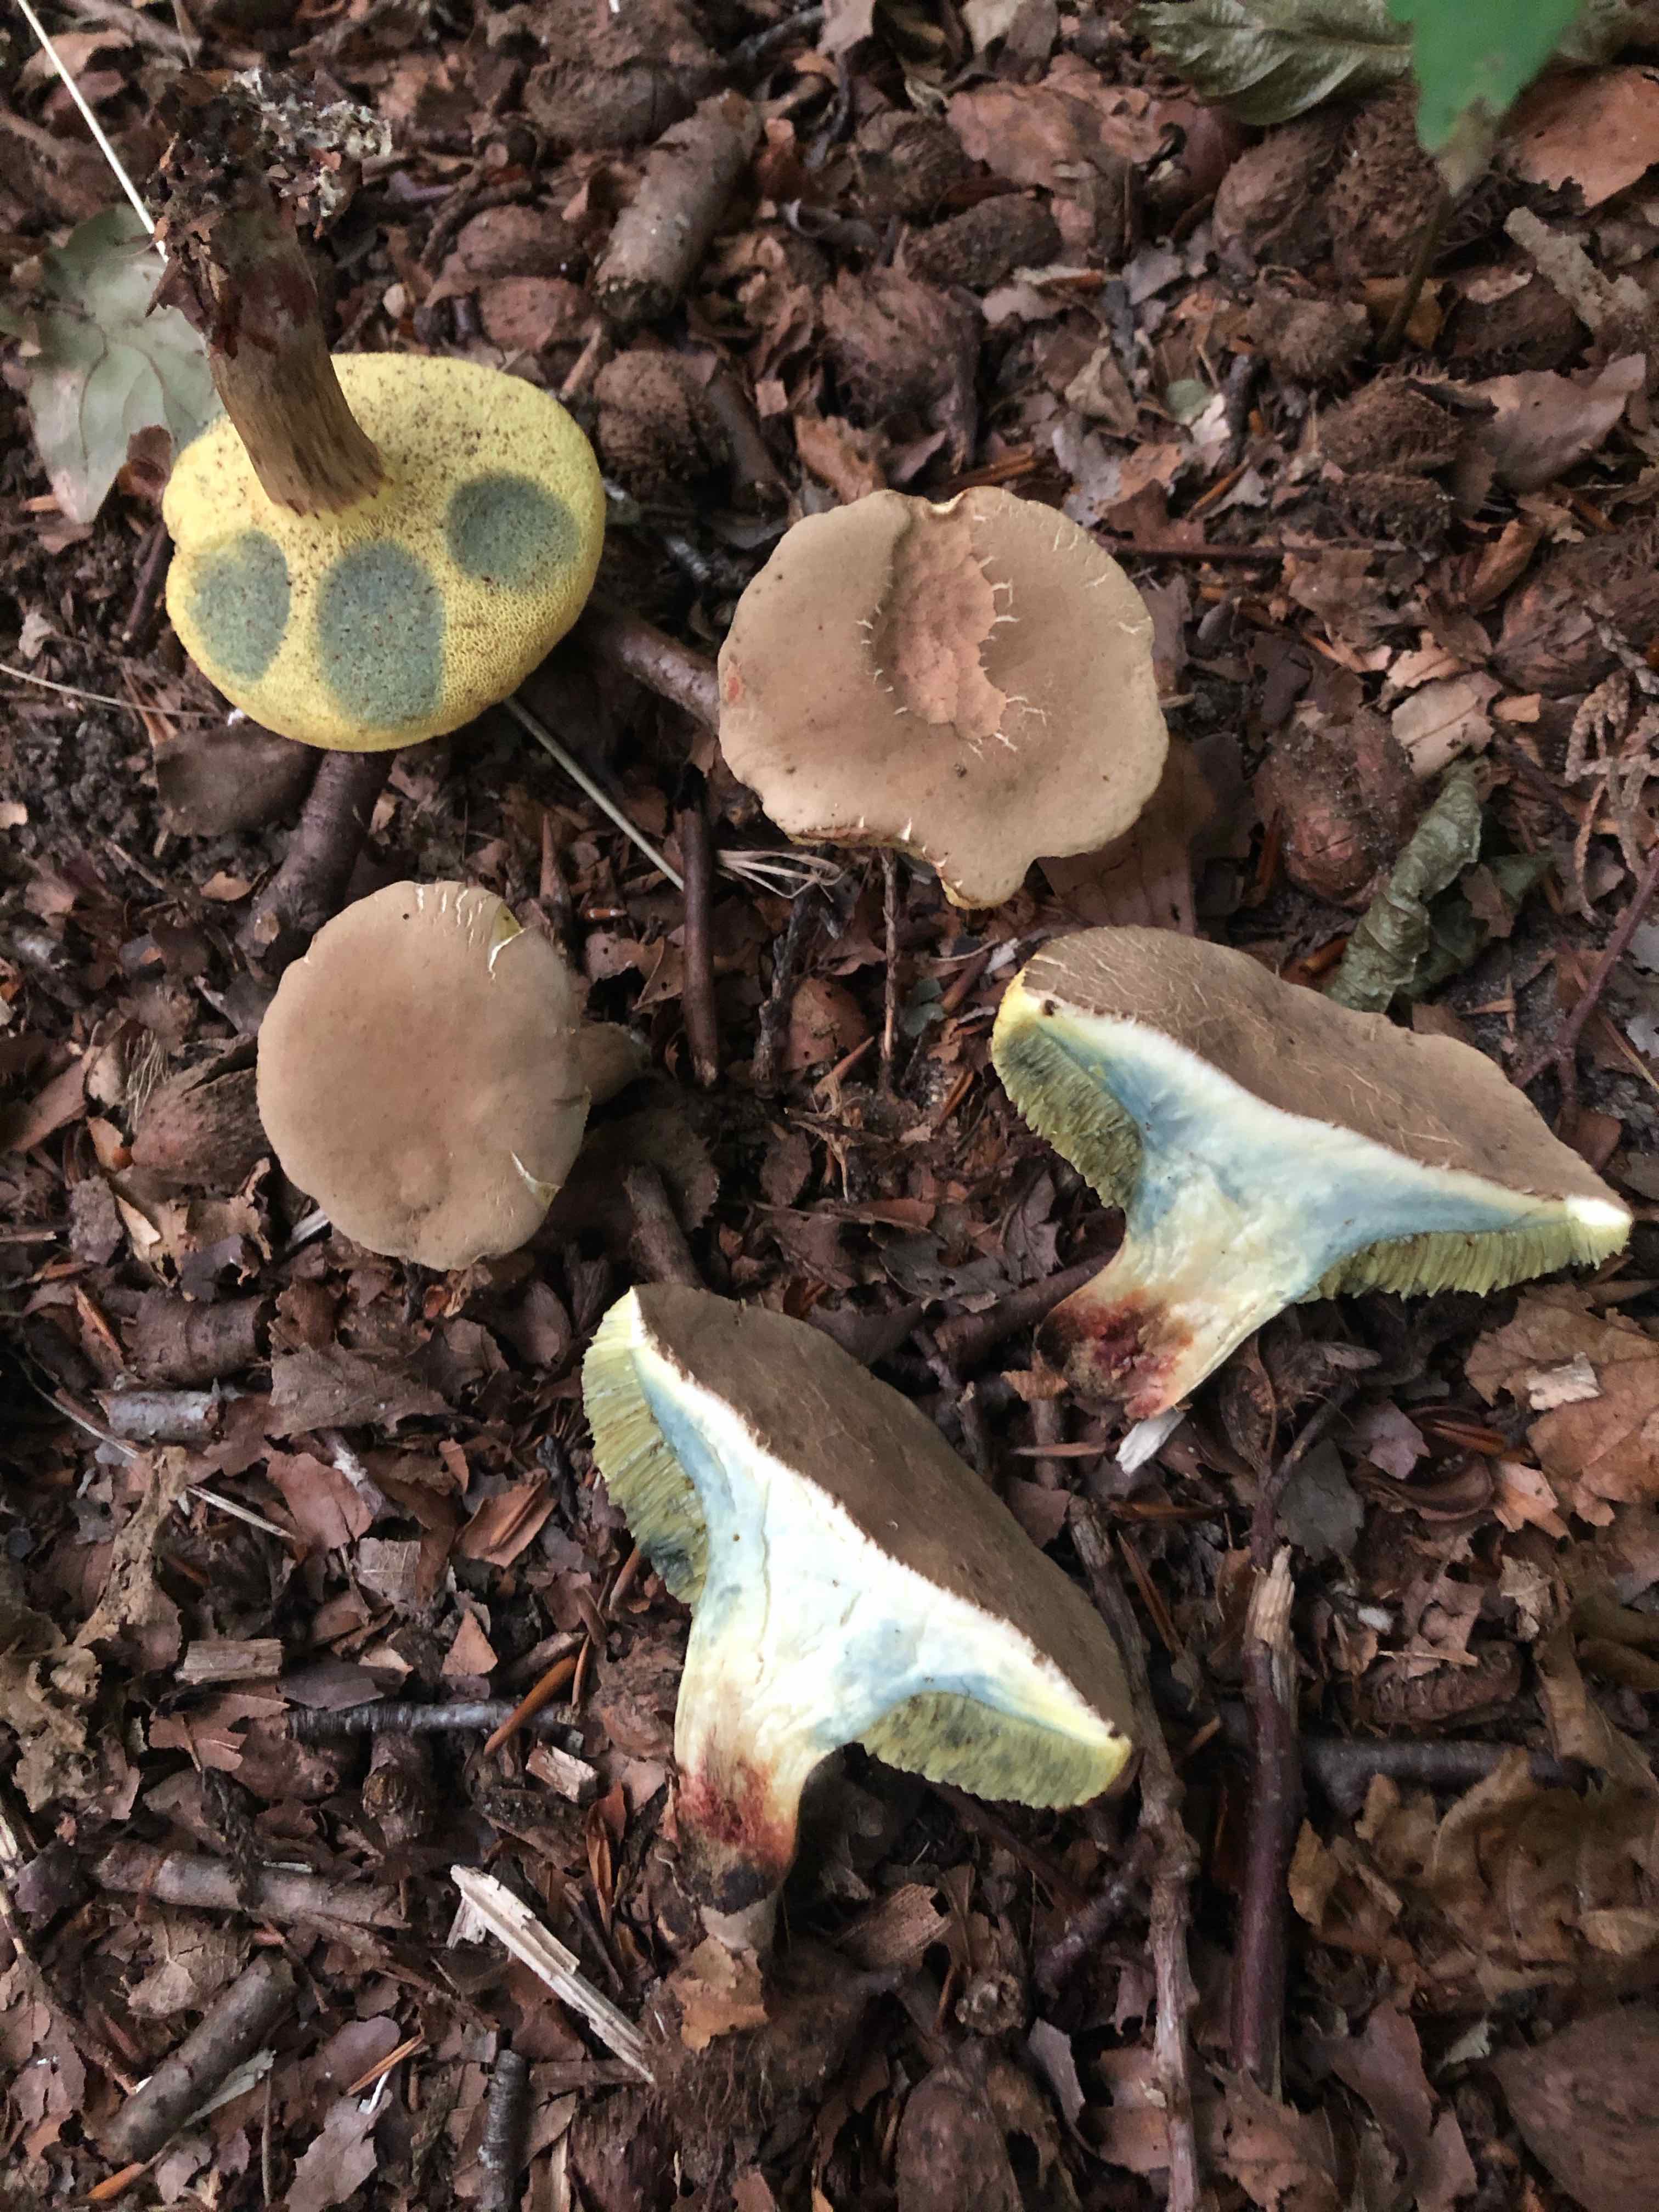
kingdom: Fungi
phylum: Basidiomycota
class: Agaricomycetes
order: Boletales
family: Boletaceae
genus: Xerocomellus
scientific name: Xerocomellus cisalpinus
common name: finsprukken rørhat
